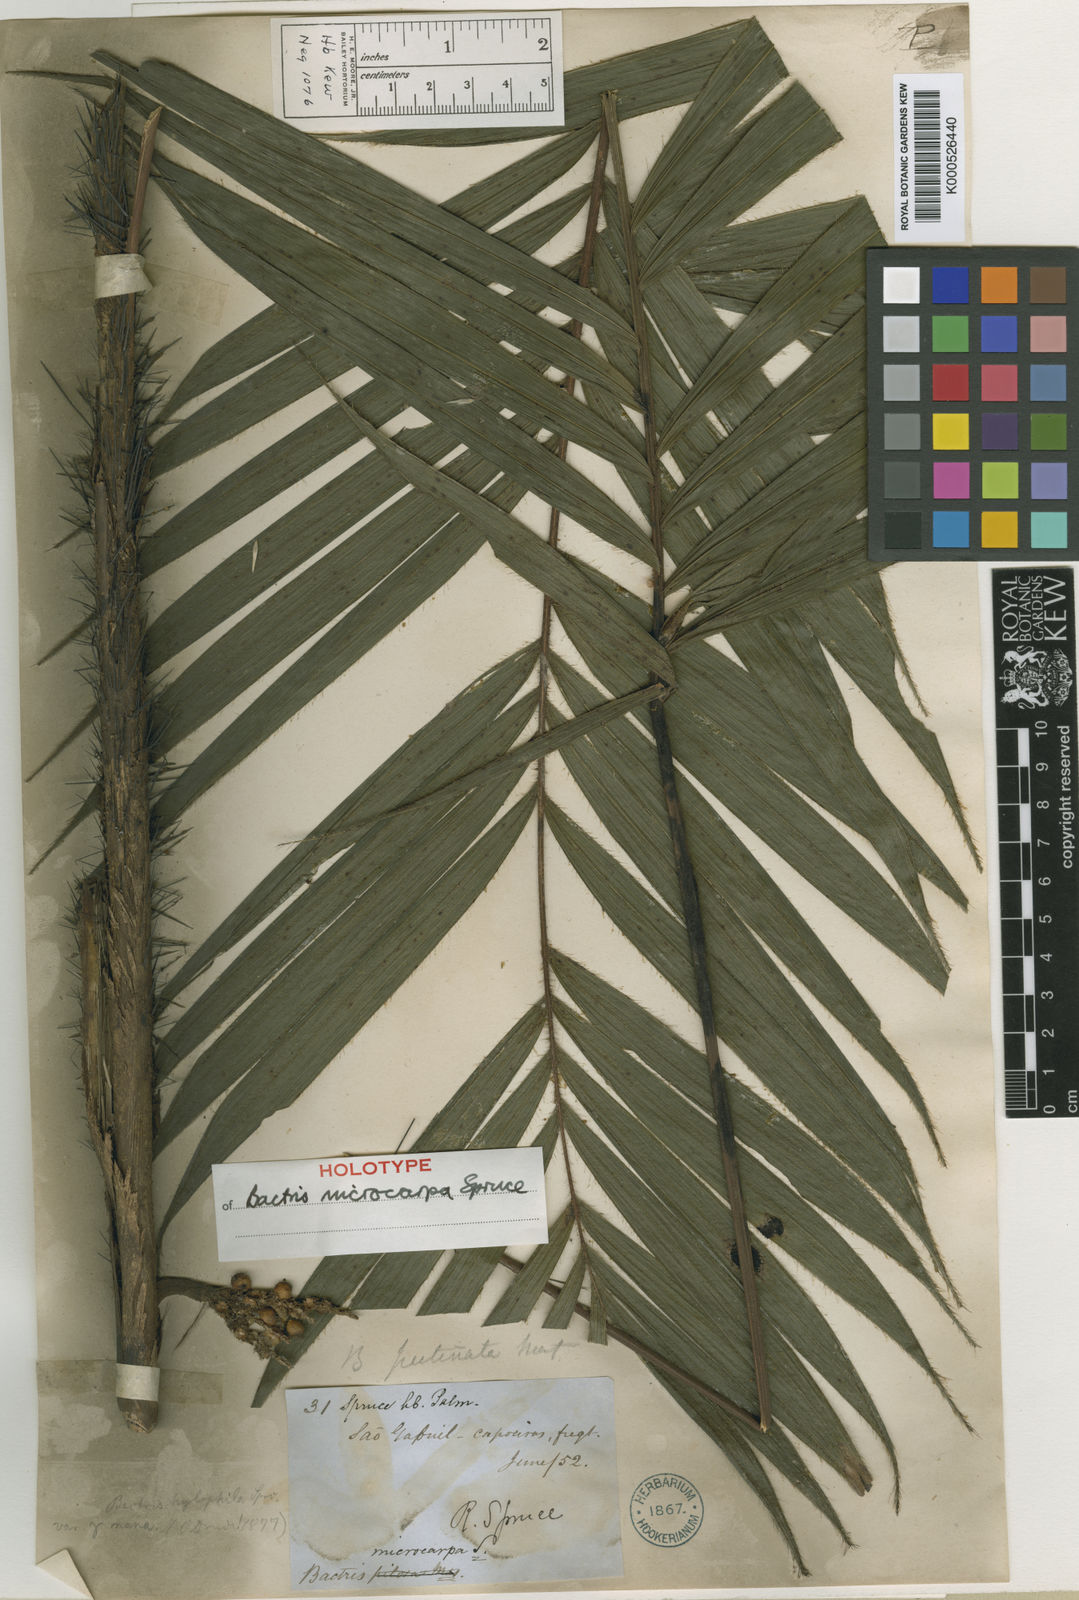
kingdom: Plantae
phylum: Tracheophyta
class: Liliopsida
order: Arecales
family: Arecaceae
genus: Bactris
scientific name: Bactris hirta
